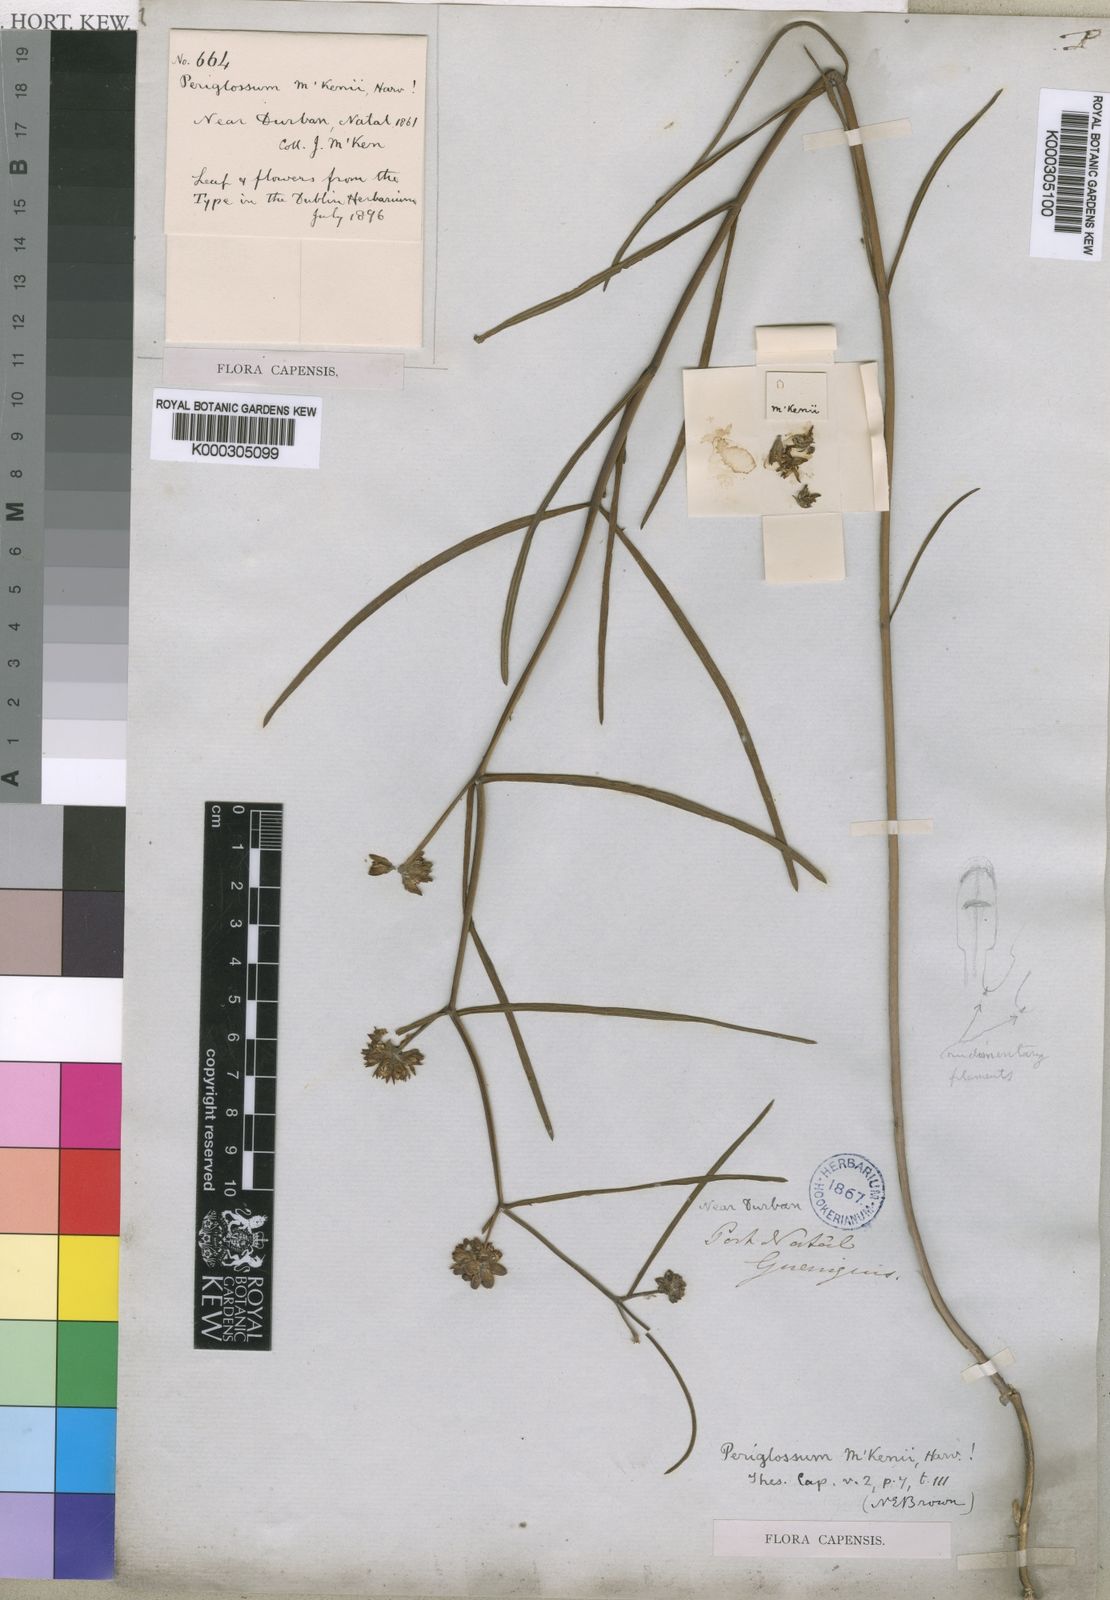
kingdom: Plantae
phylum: Tracheophyta
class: Magnoliopsida
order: Gentianales
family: Apocynaceae
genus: Periglossum
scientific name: Periglossum
